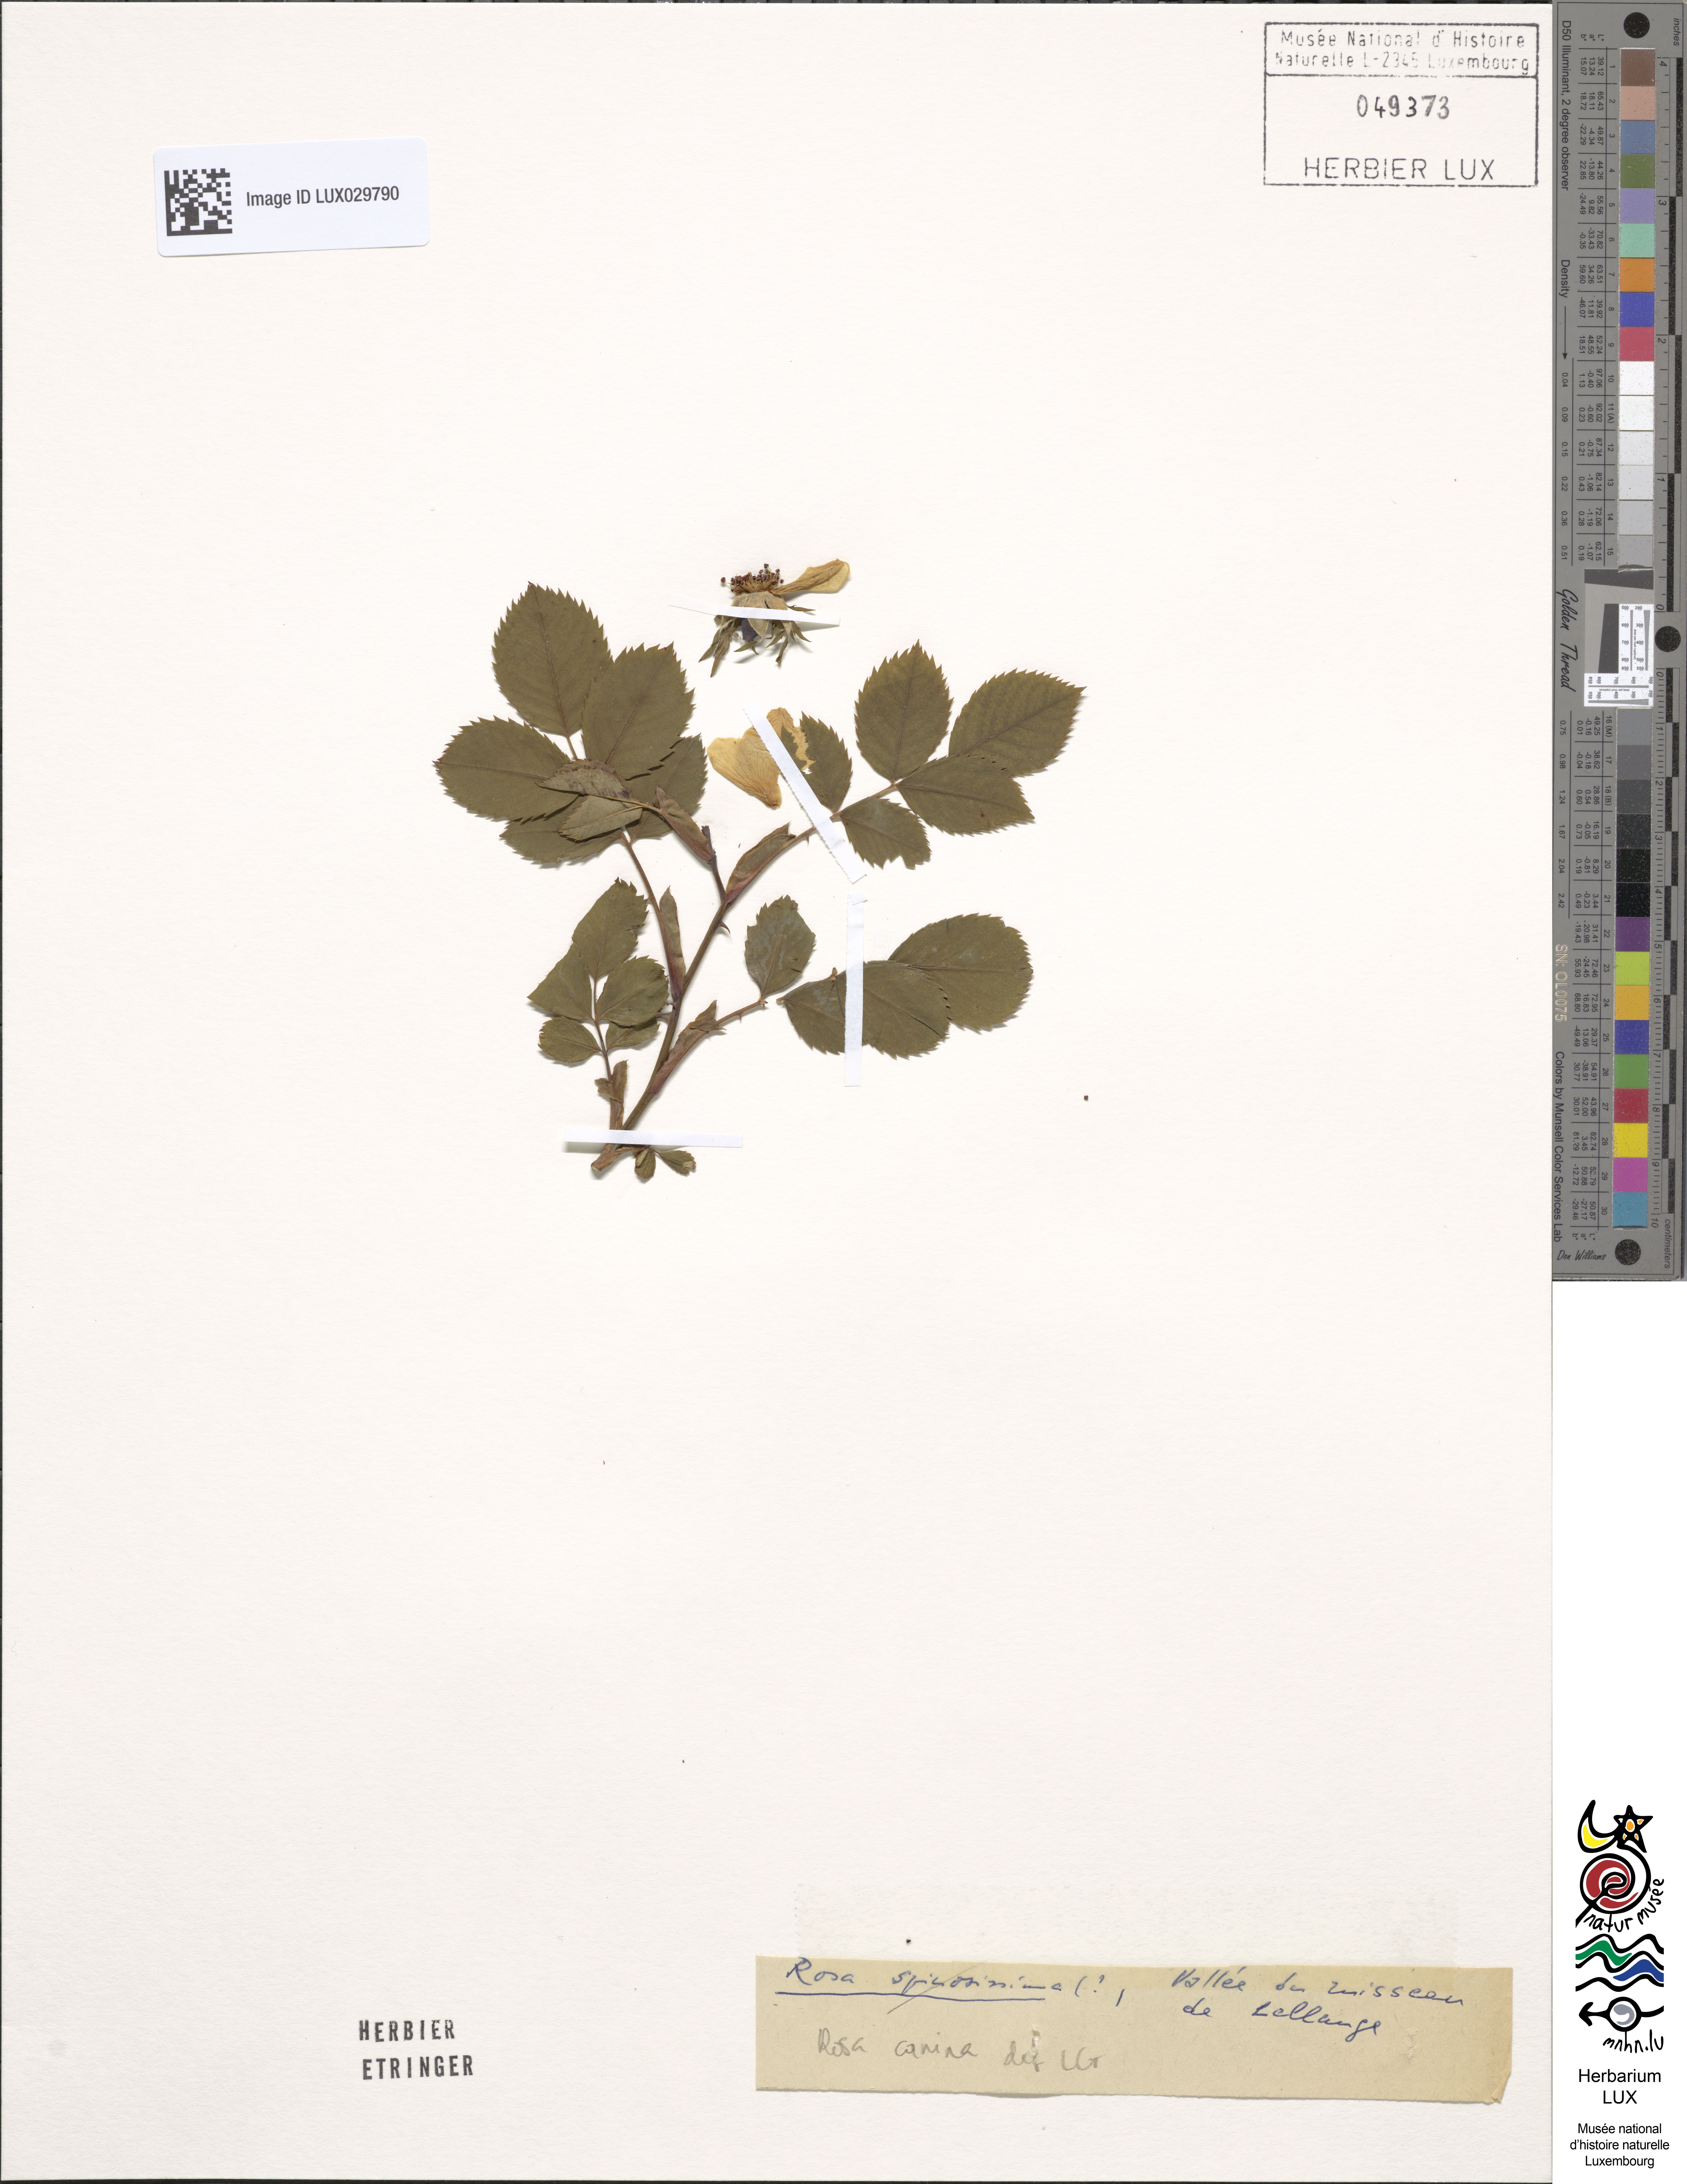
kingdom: Plantae
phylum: Tracheophyta
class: Magnoliopsida
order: Rosales
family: Rosaceae
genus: Rosa
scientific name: Rosa canina
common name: Dog rose
